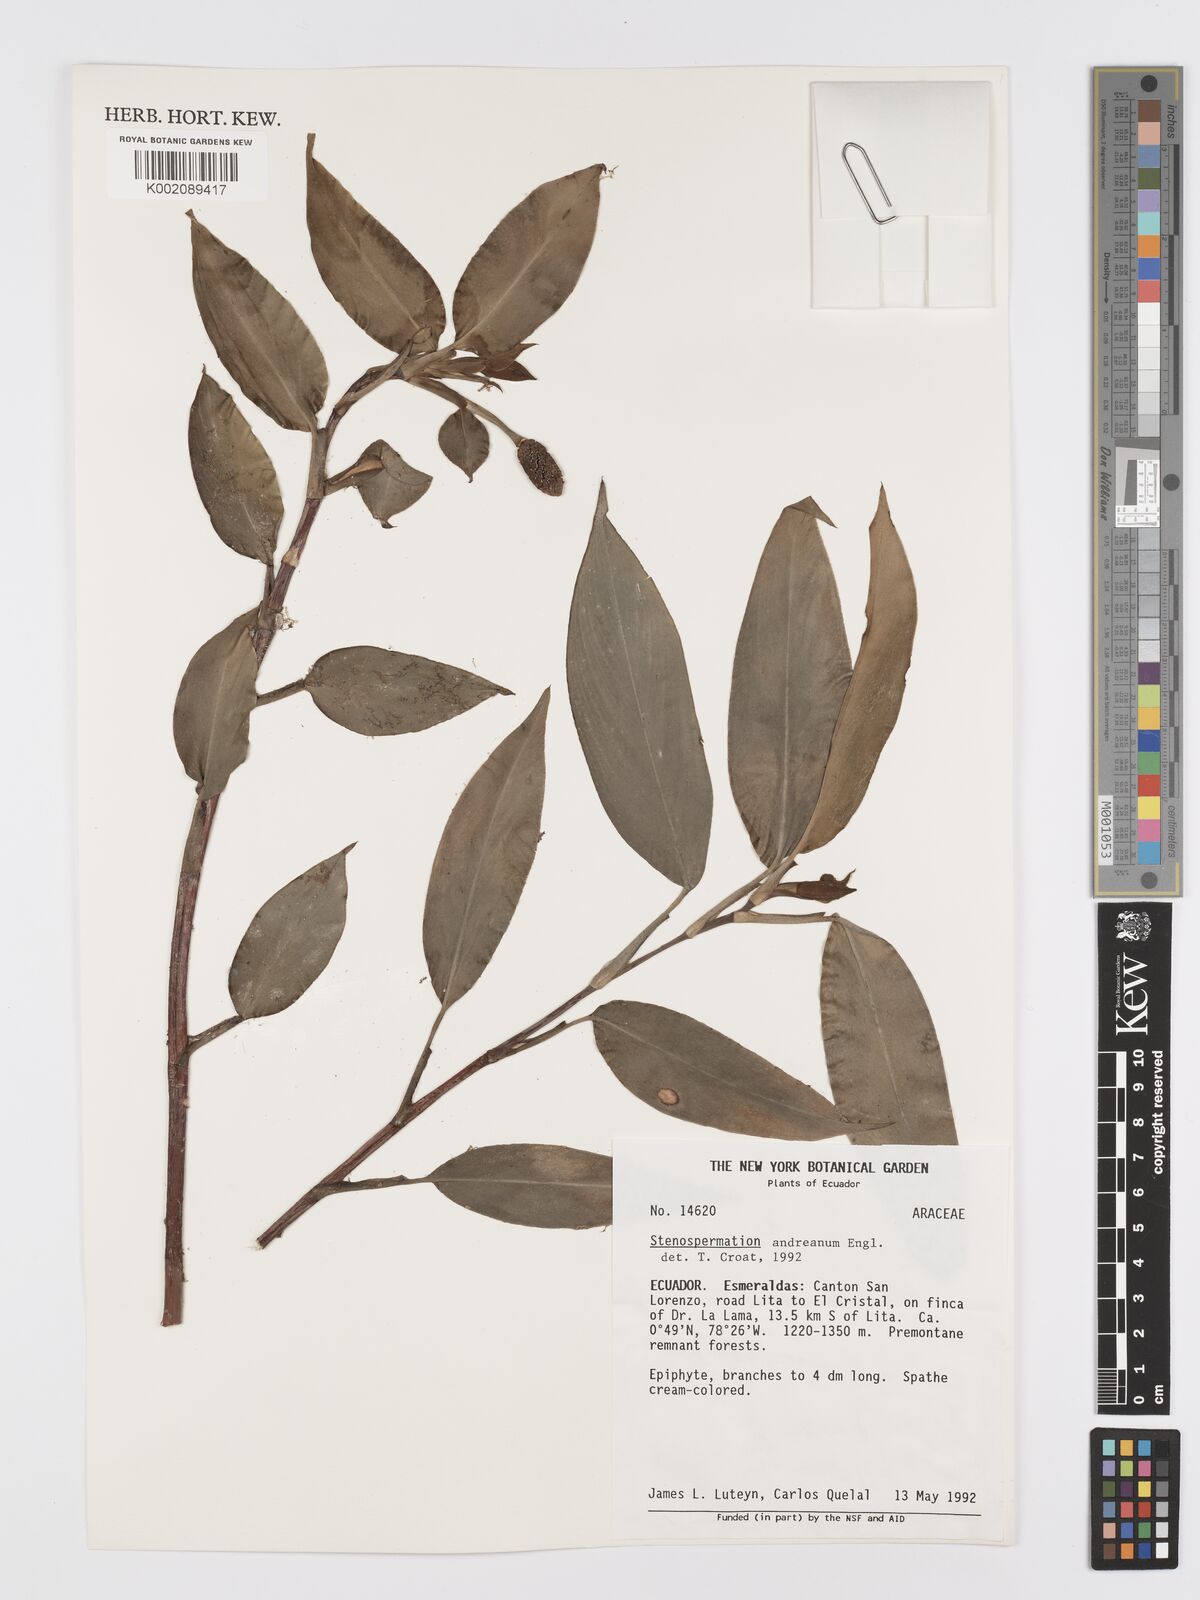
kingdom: Plantae
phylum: Tracheophyta
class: Liliopsida
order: Alismatales
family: Araceae
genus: Stenospermation
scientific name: Stenospermation andreanum
